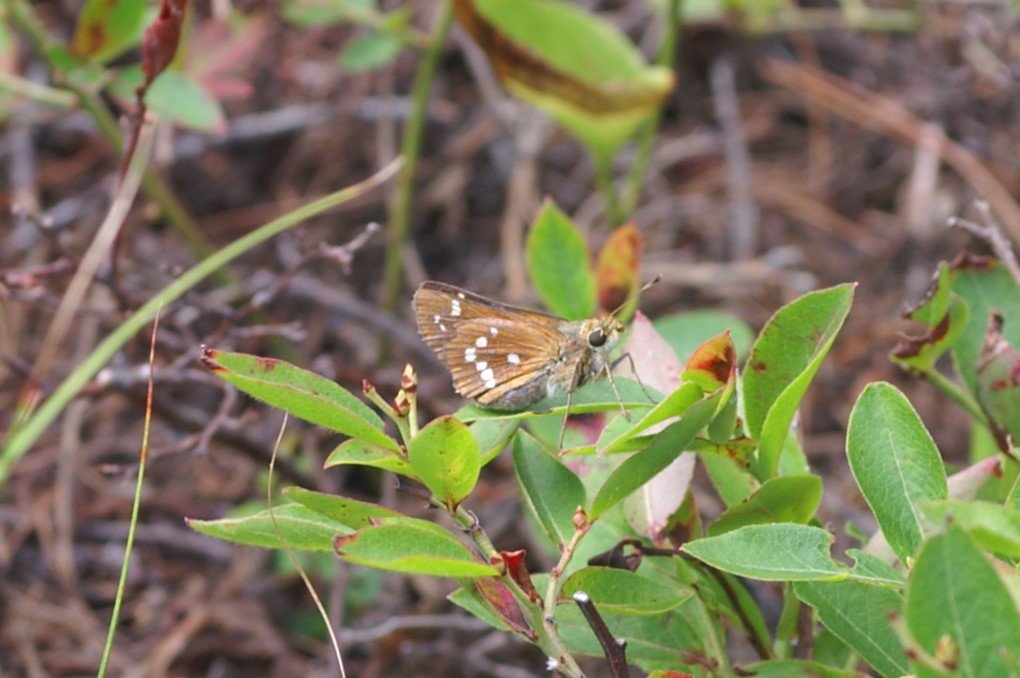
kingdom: Animalia
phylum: Arthropoda
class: Insecta
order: Lepidoptera
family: Hesperiidae
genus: Hesperia
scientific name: Hesperia leonardus
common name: Leonard's Skipper
